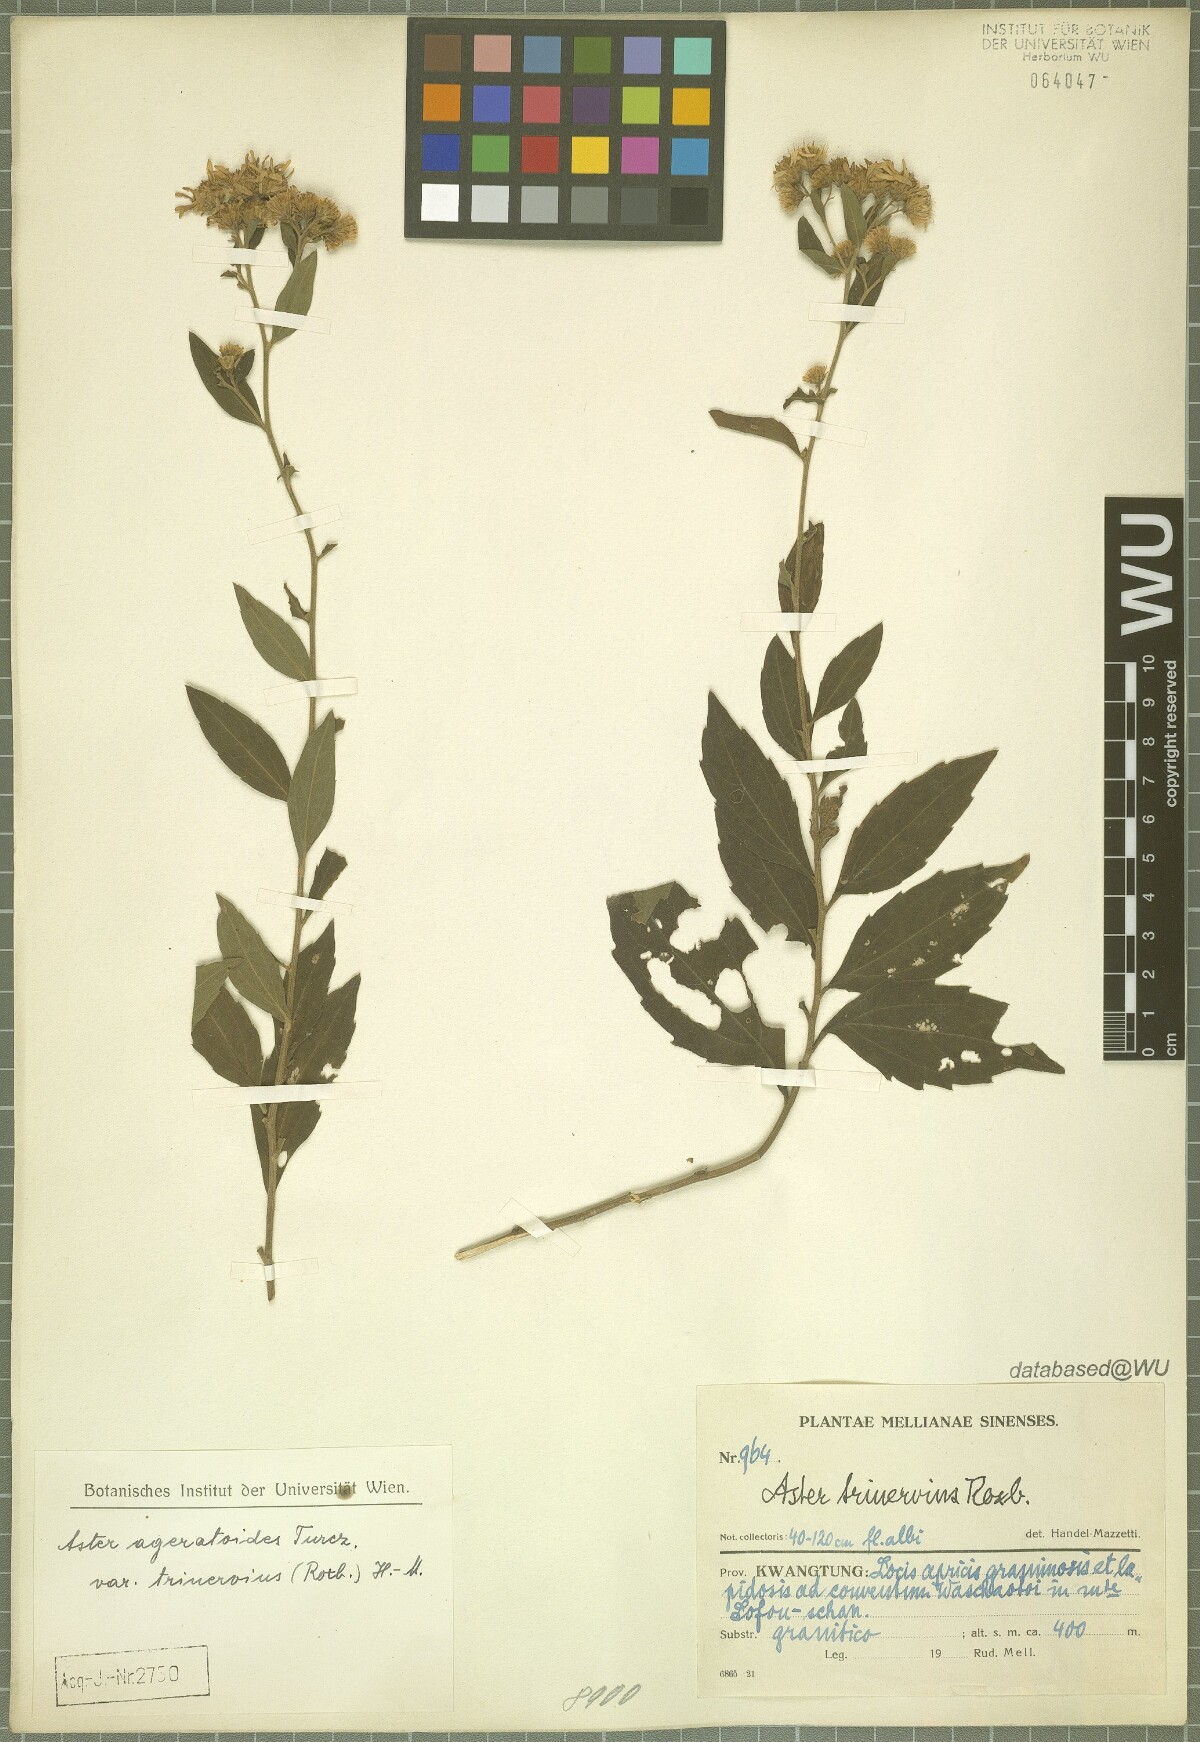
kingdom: Plantae
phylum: Tracheophyta
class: Magnoliopsida
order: Asterales
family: Asteraceae
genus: Aster
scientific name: Aster ageratoides
